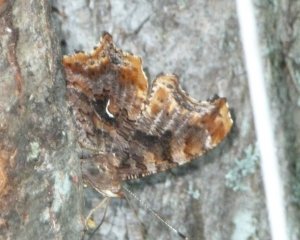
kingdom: Animalia
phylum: Arthropoda
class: Insecta
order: Lepidoptera
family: Nymphalidae
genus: Polygonia
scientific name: Polygonia comma
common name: Eastern Comma
